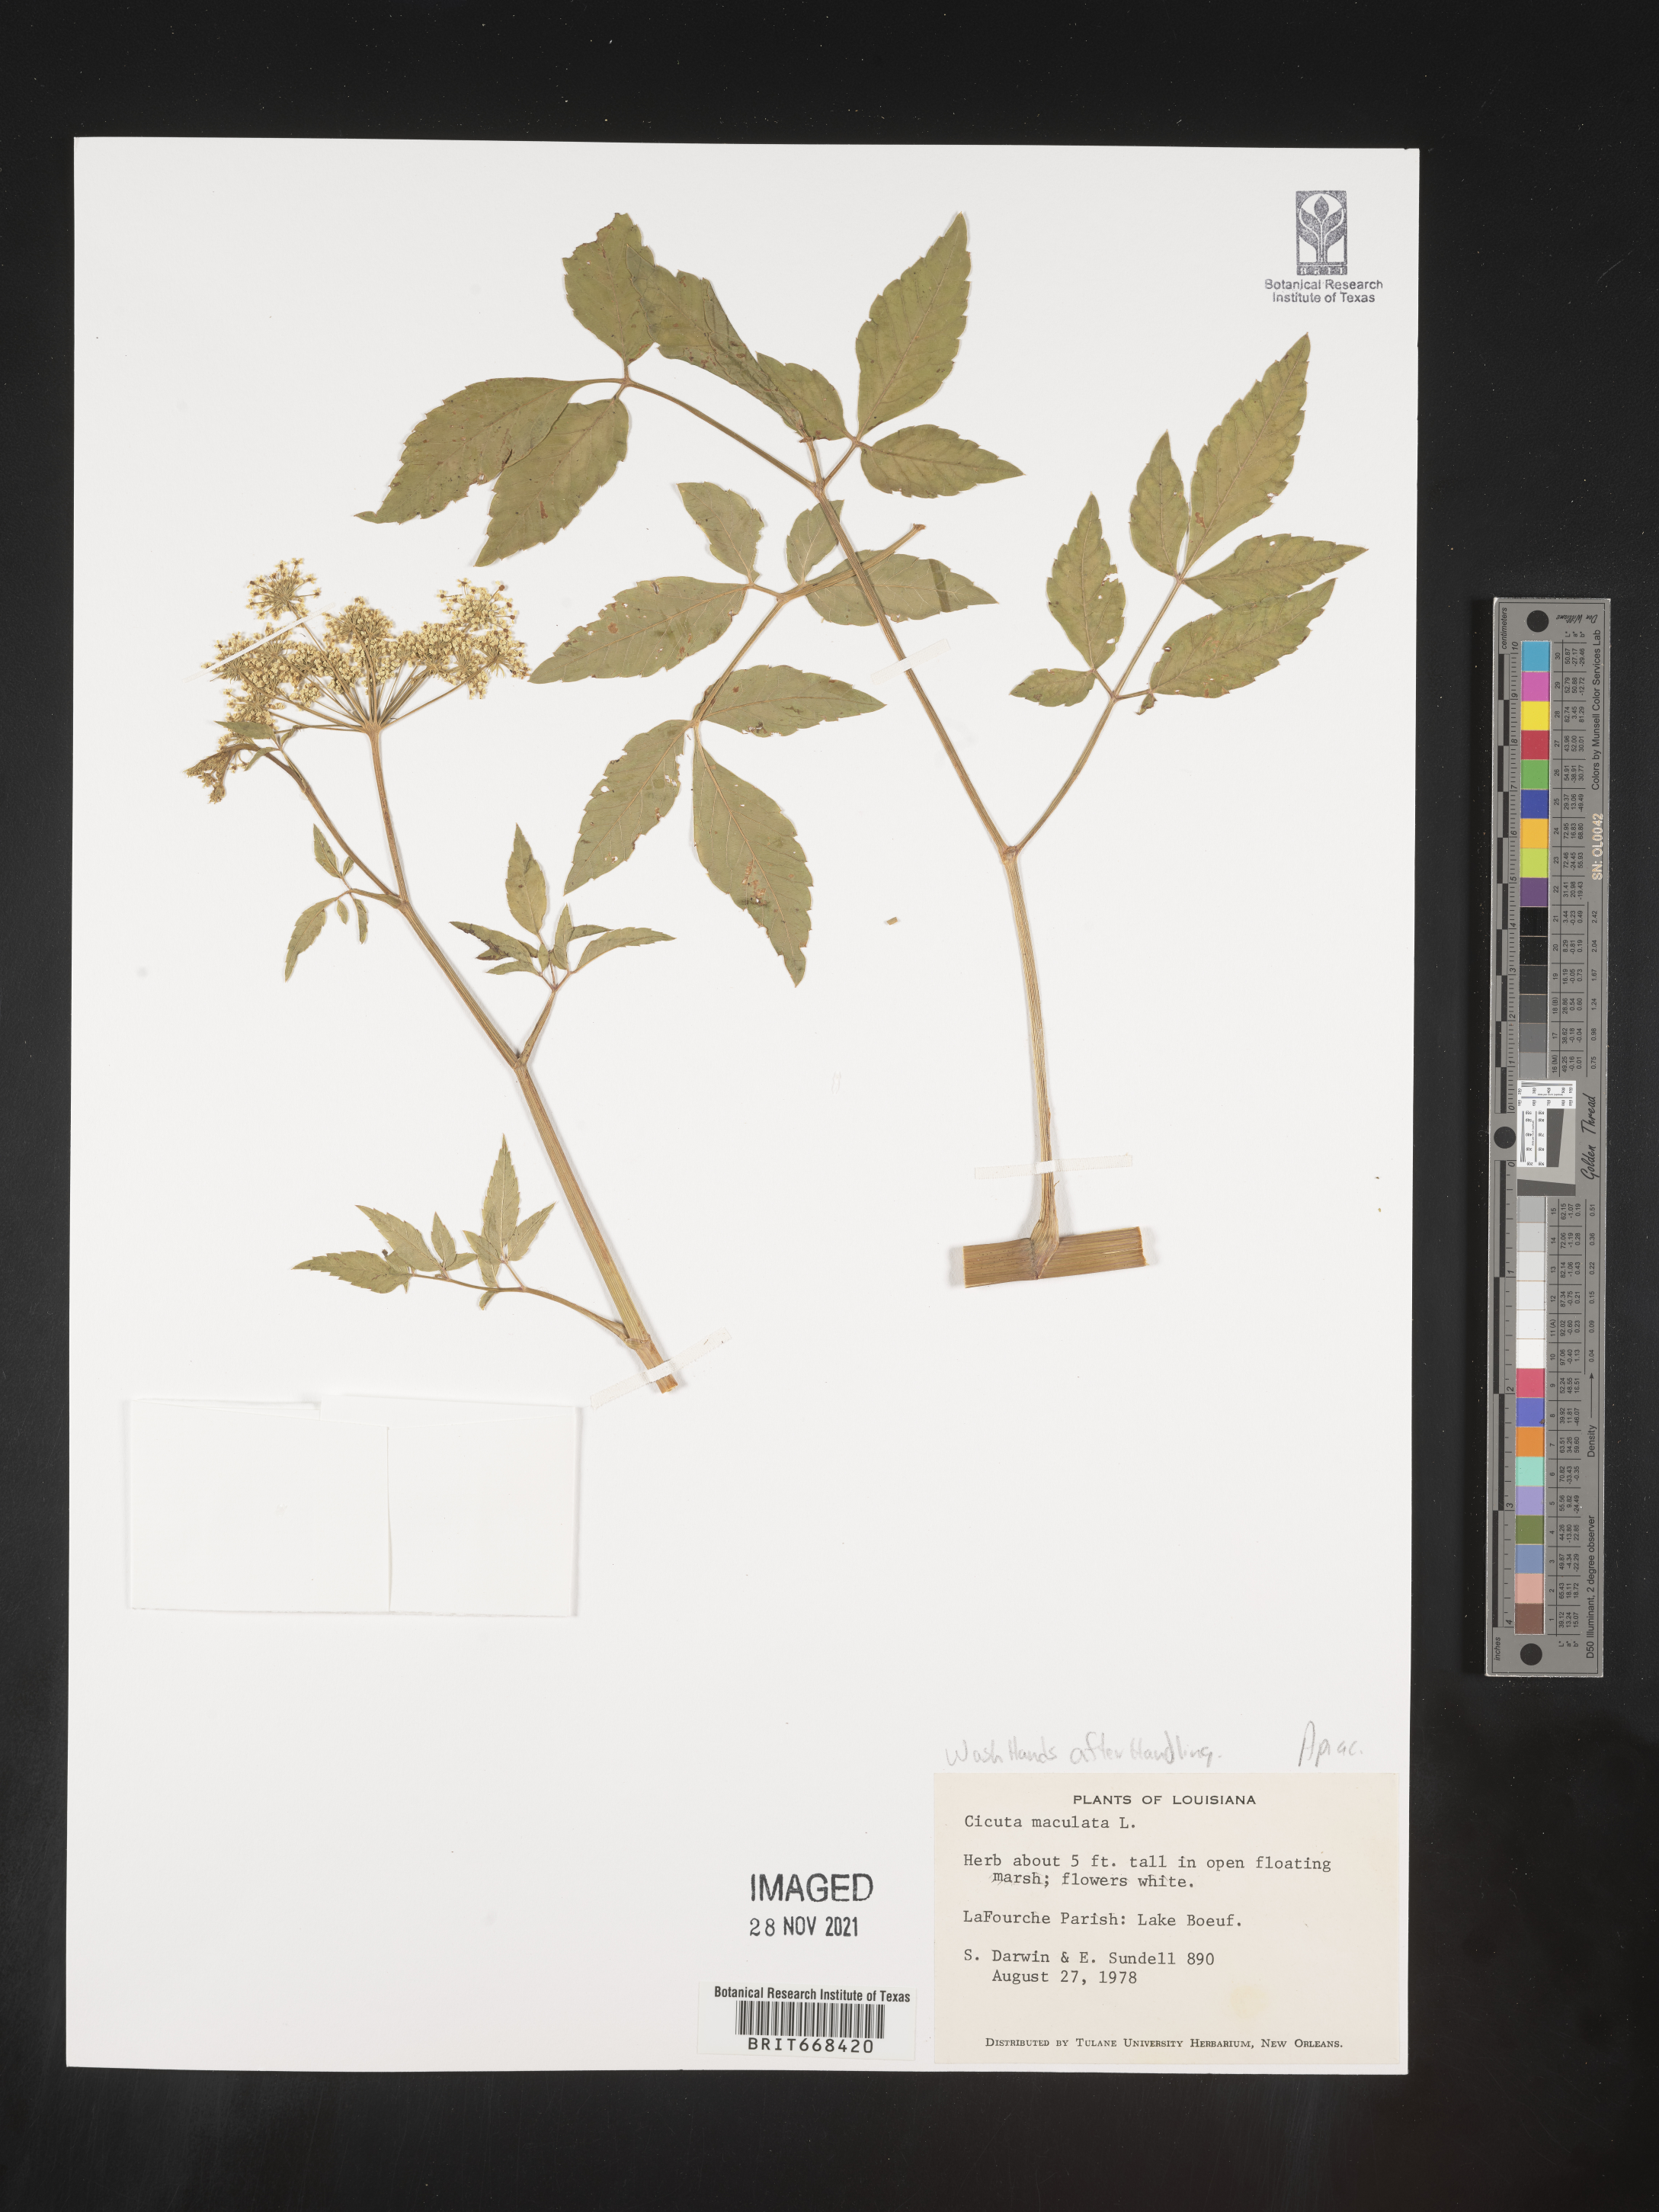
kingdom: Plantae
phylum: Tracheophyta
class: Magnoliopsida
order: Apiales
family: Apiaceae
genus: Cicuta
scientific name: Cicuta maculata
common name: Spotted cowbane
